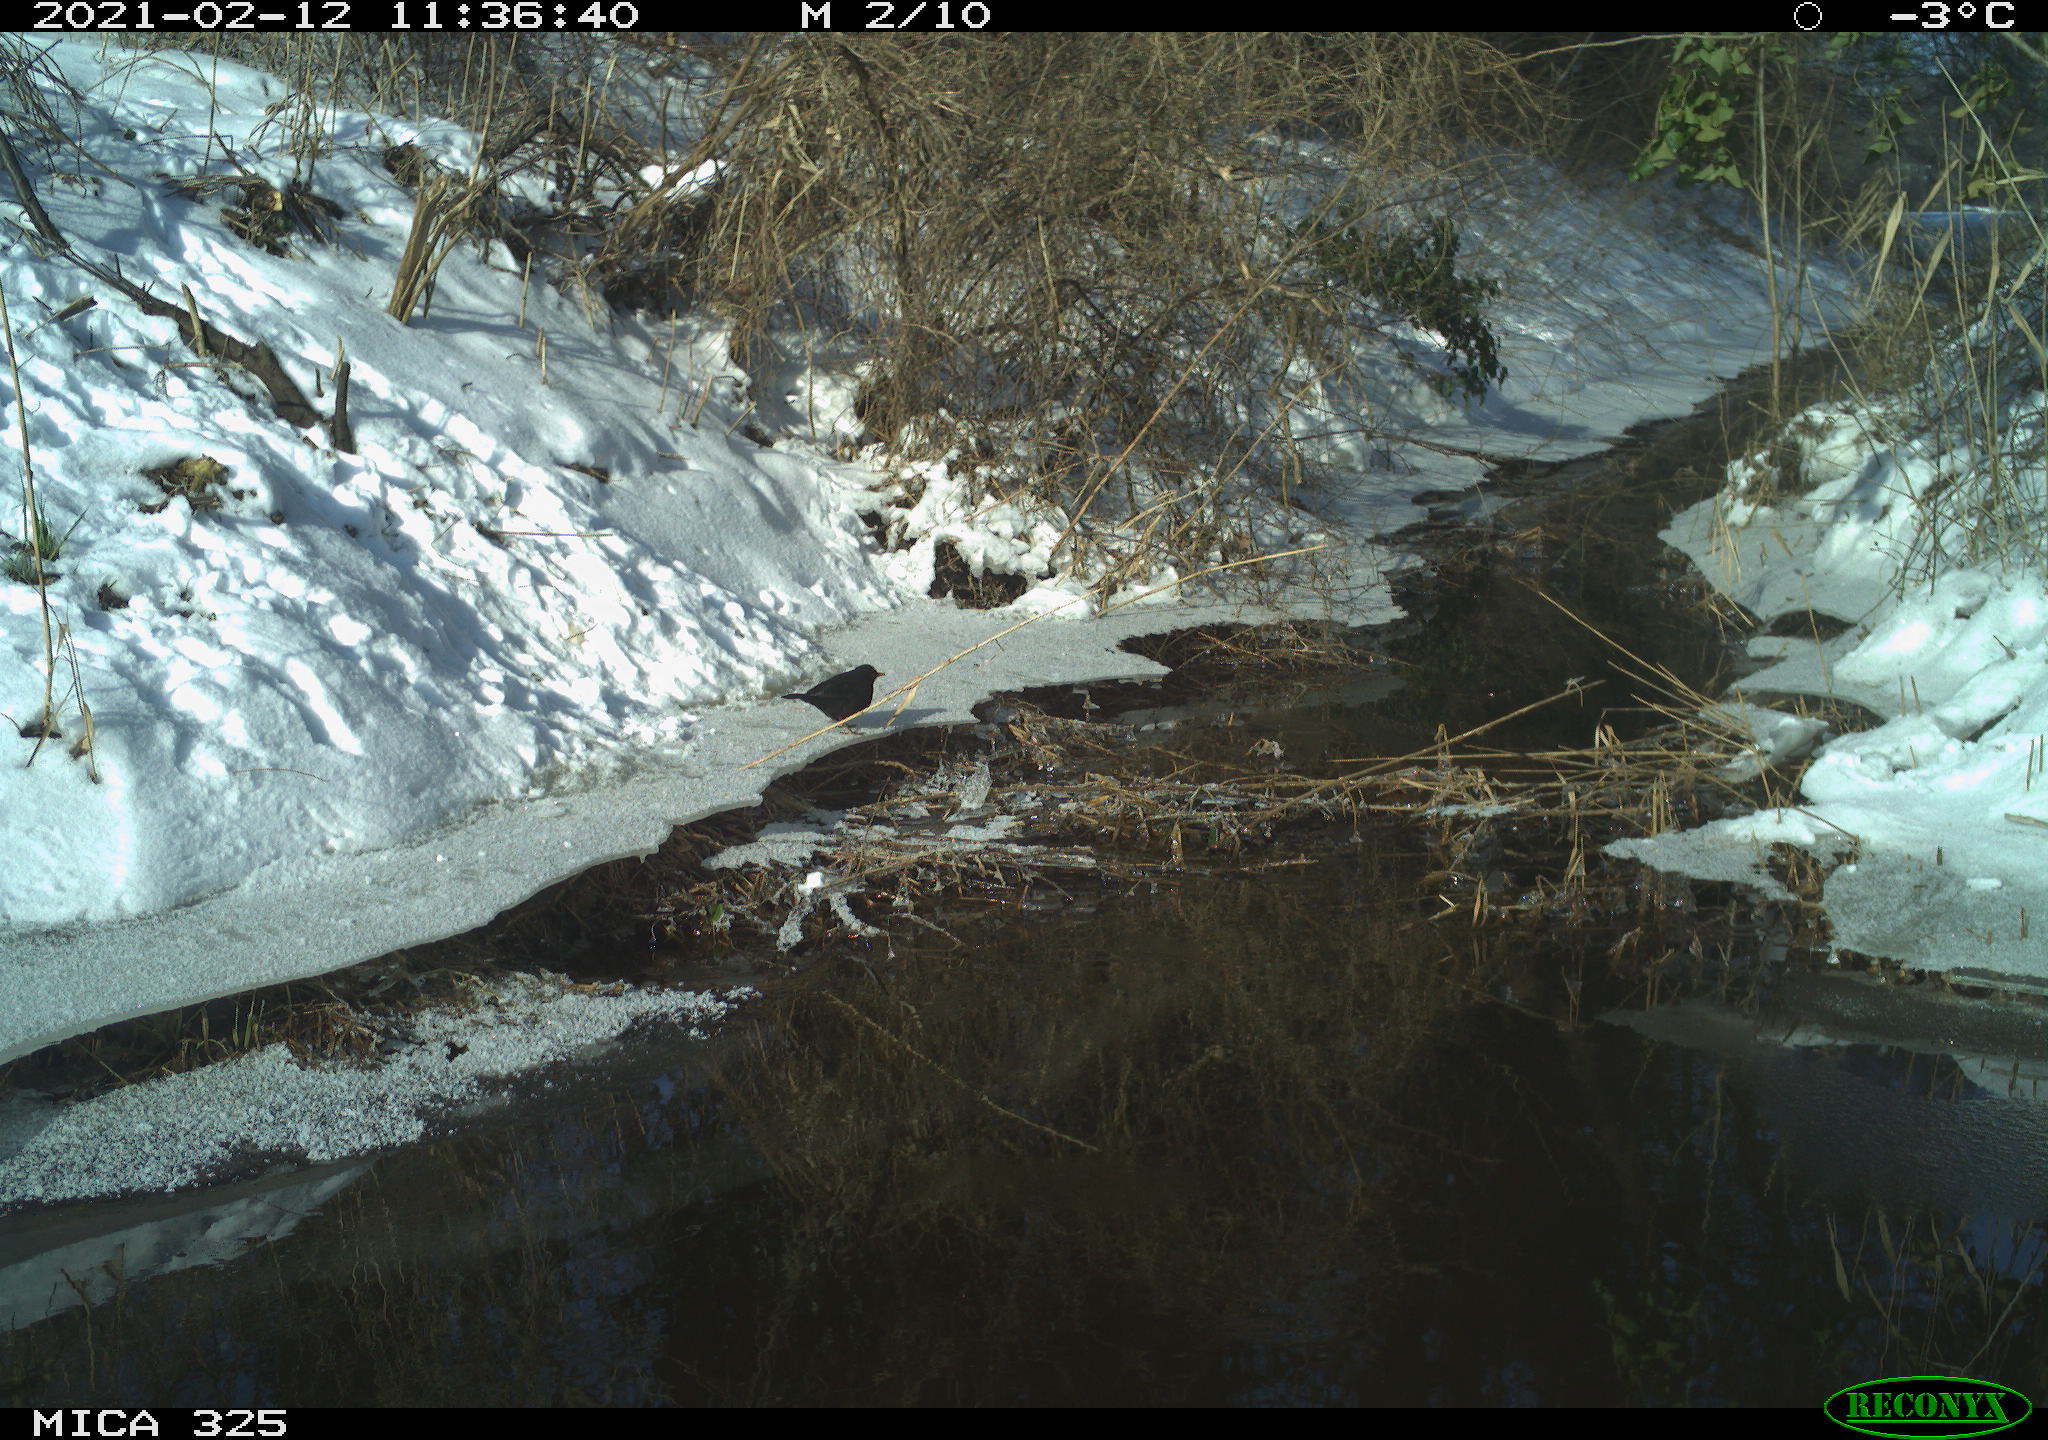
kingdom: Animalia
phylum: Chordata
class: Aves
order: Passeriformes
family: Turdidae
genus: Turdus
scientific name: Turdus merula
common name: Common blackbird
